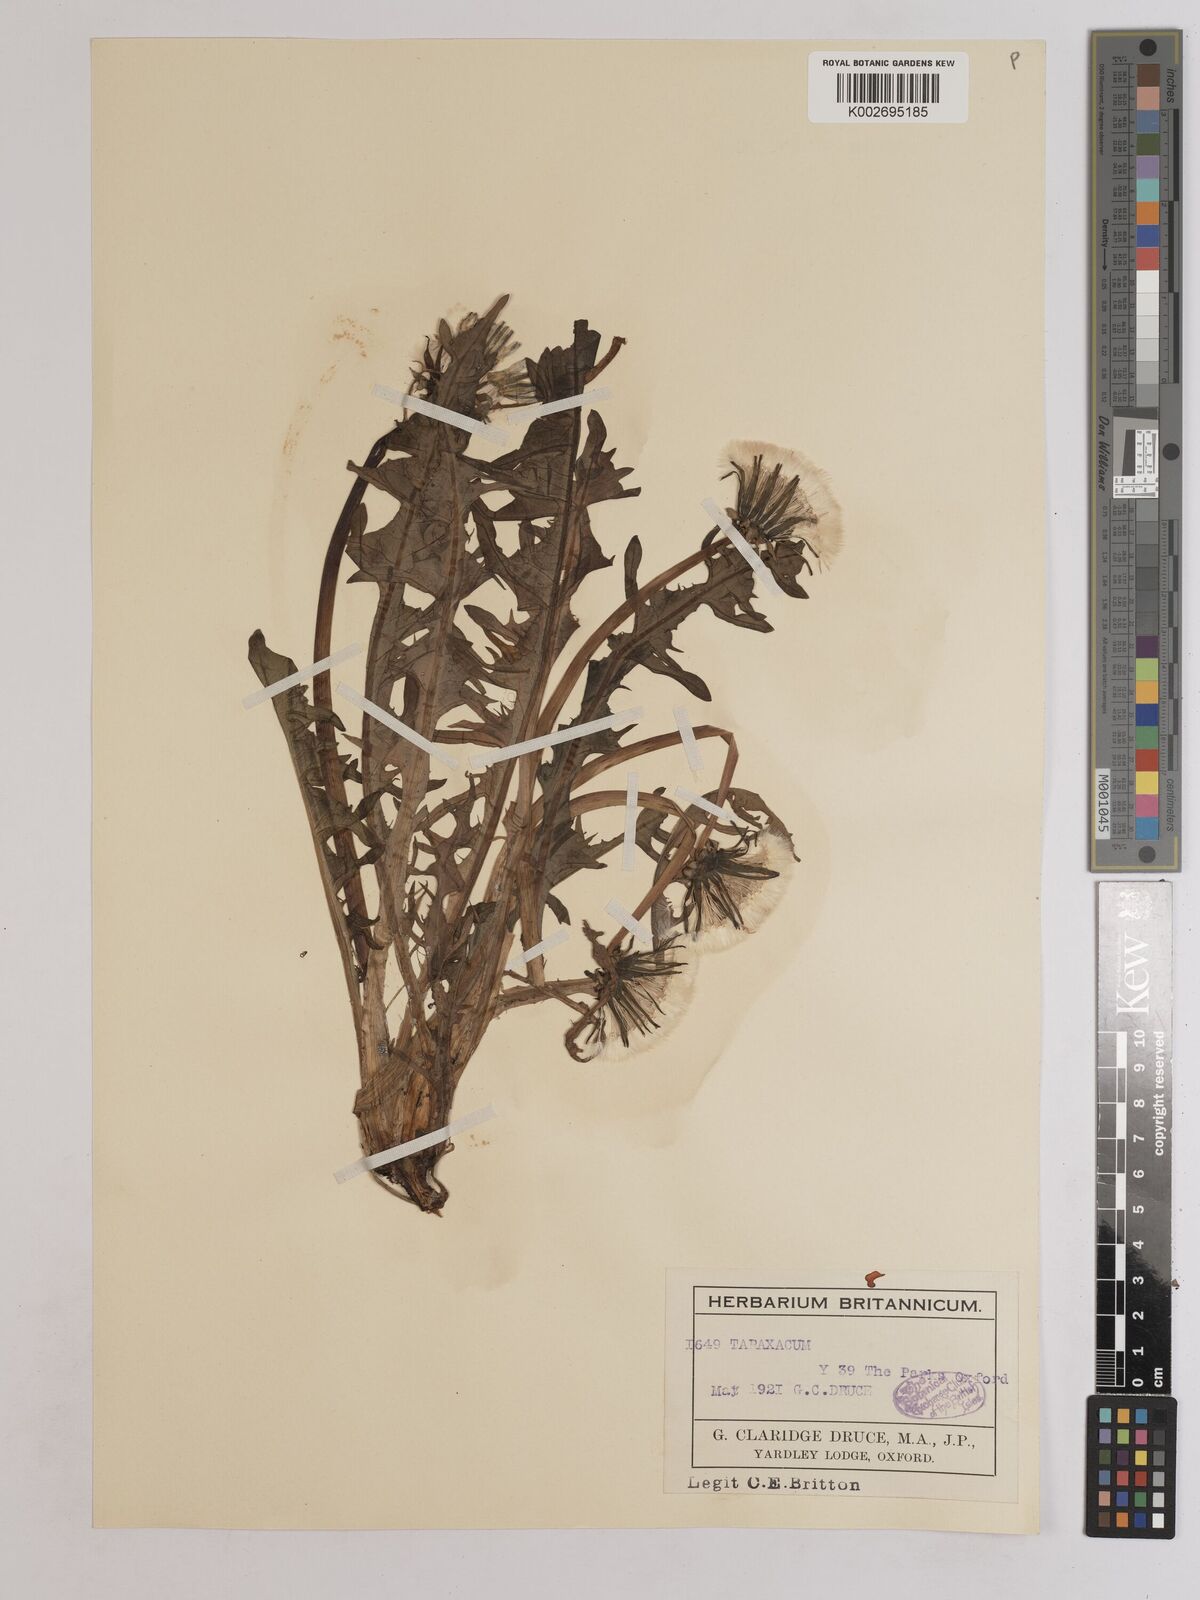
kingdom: Plantae
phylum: Tracheophyta
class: Magnoliopsida
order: Asterales
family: Asteraceae
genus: Taraxacum
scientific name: Taraxacum officinale
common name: Common dandelion
